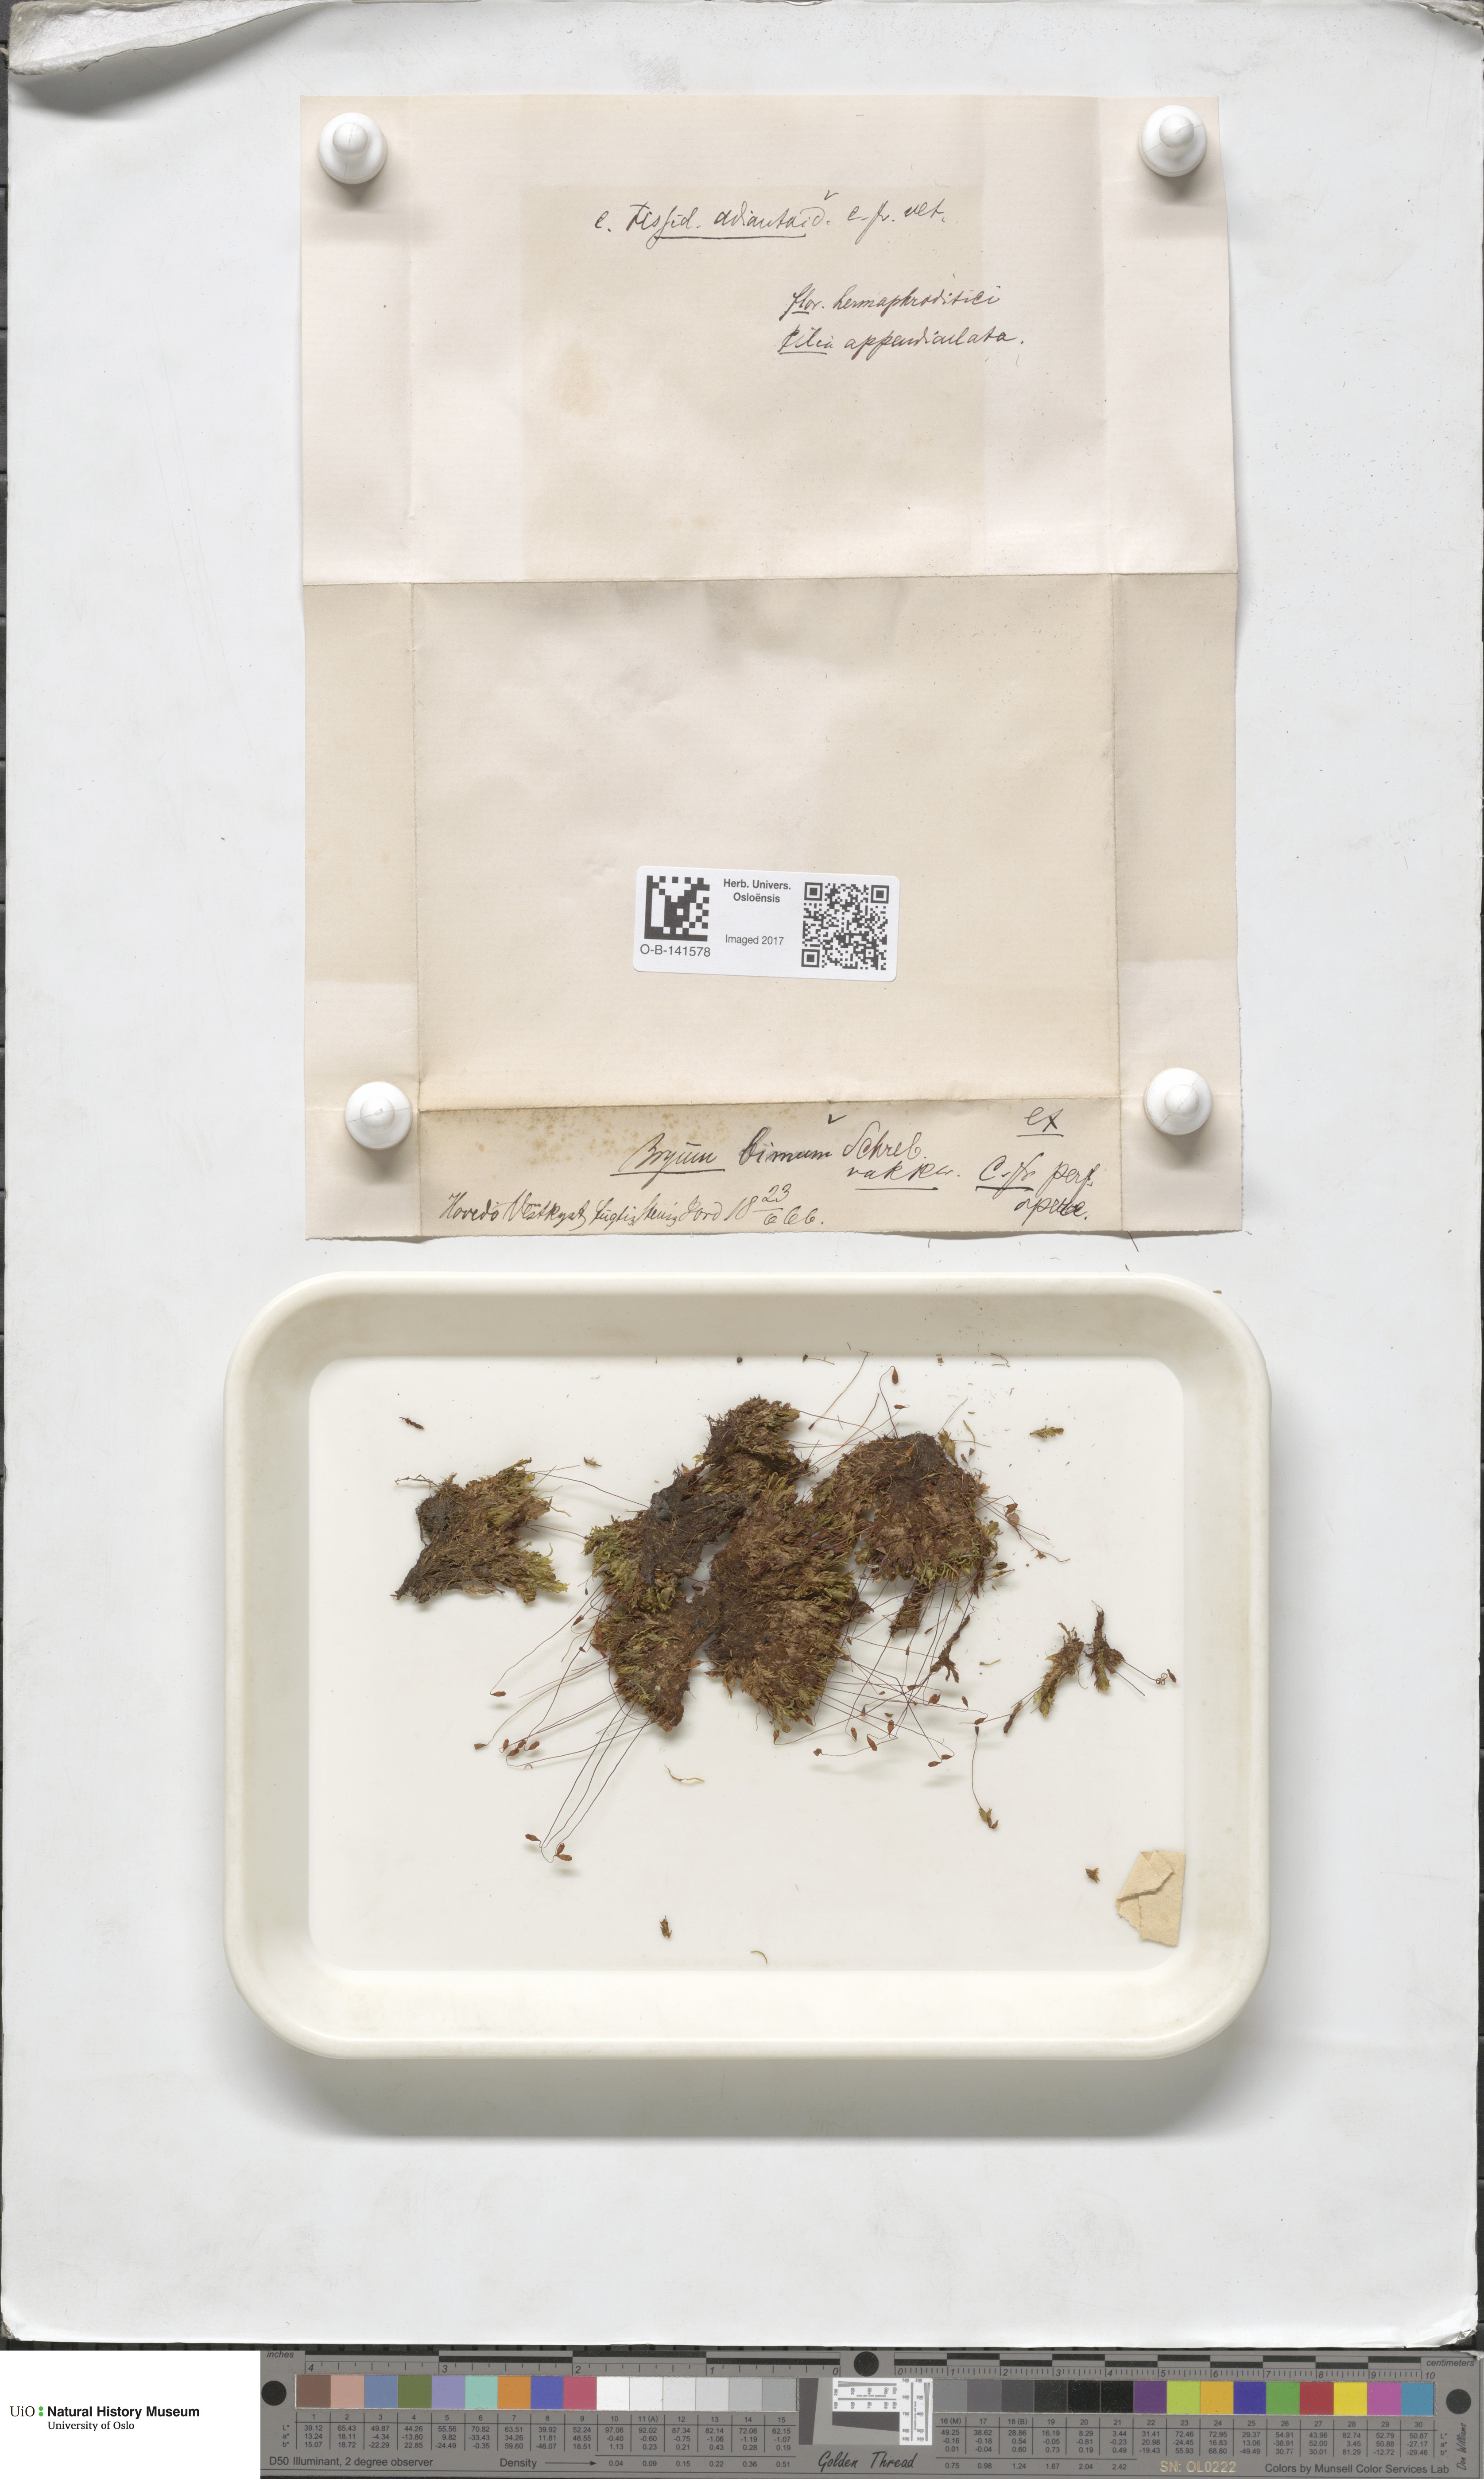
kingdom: Plantae
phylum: Bryophyta
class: Bryopsida
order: Bryales
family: Bryaceae
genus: Ptychostomum
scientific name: Ptychostomum pseudotriquetrum
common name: Long-leaved thread moss
